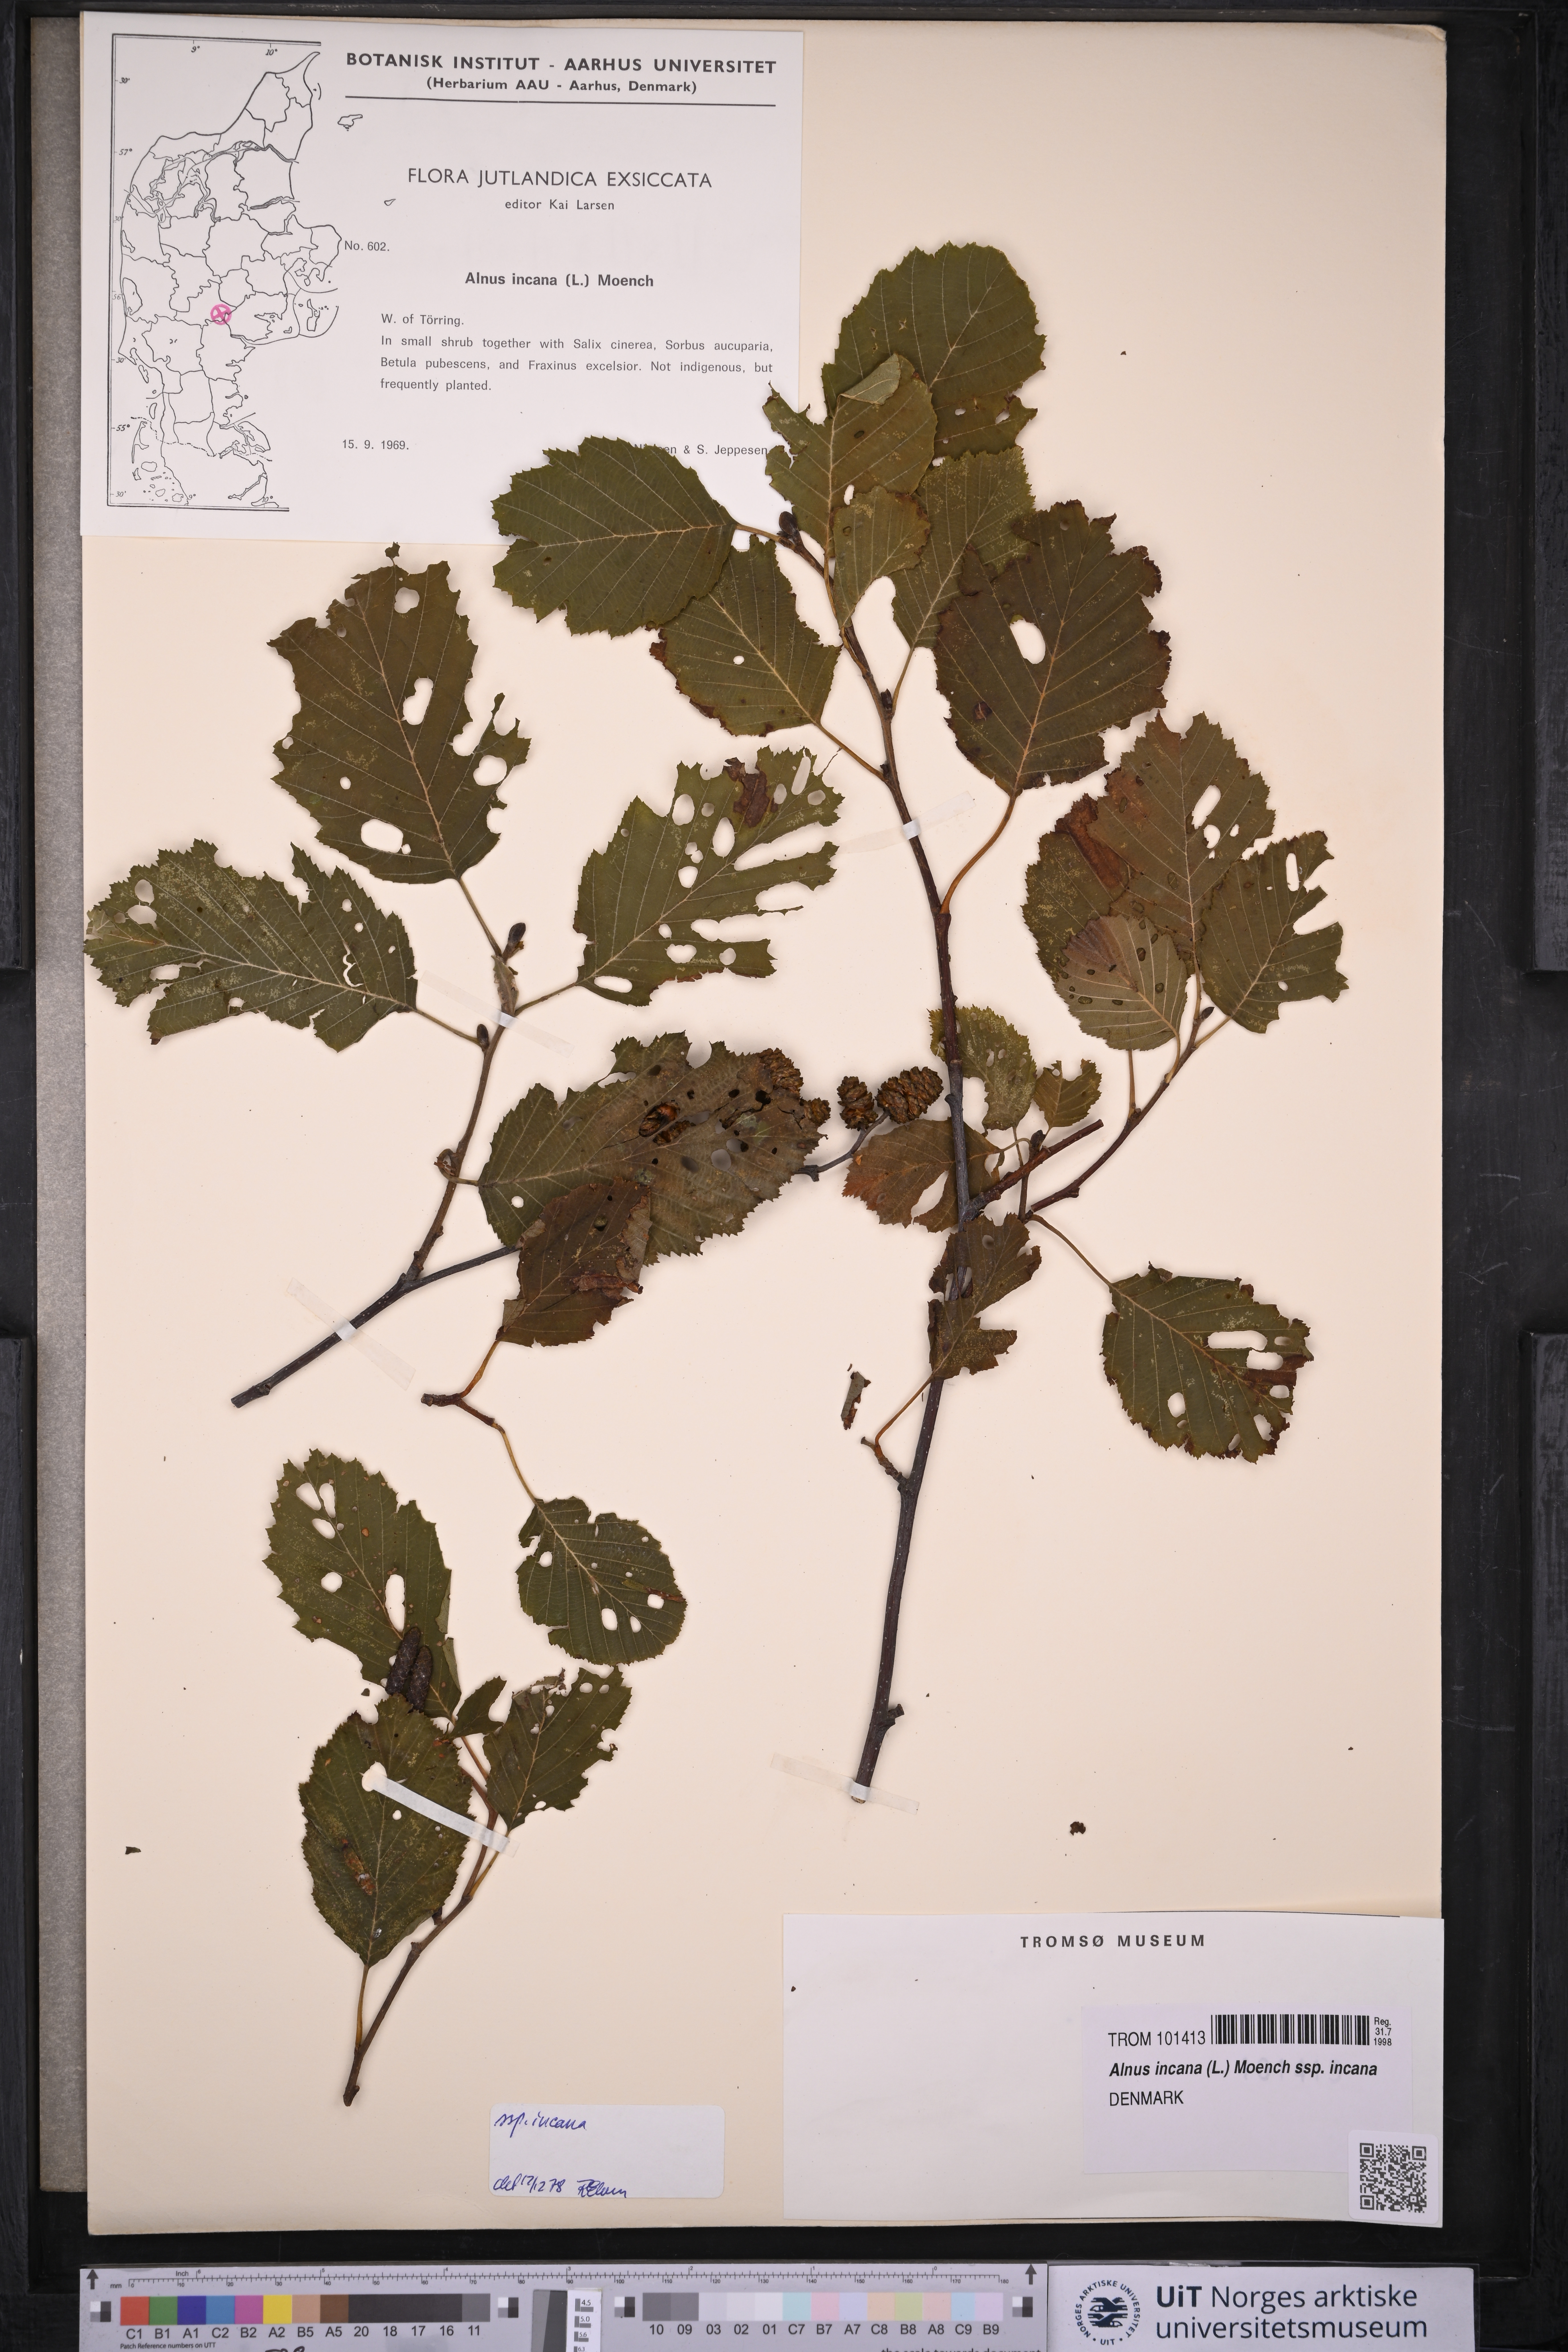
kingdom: Plantae
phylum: Tracheophyta
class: Magnoliopsida
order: Fagales
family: Betulaceae
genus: Alnus
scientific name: Alnus incana
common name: Grey alder
